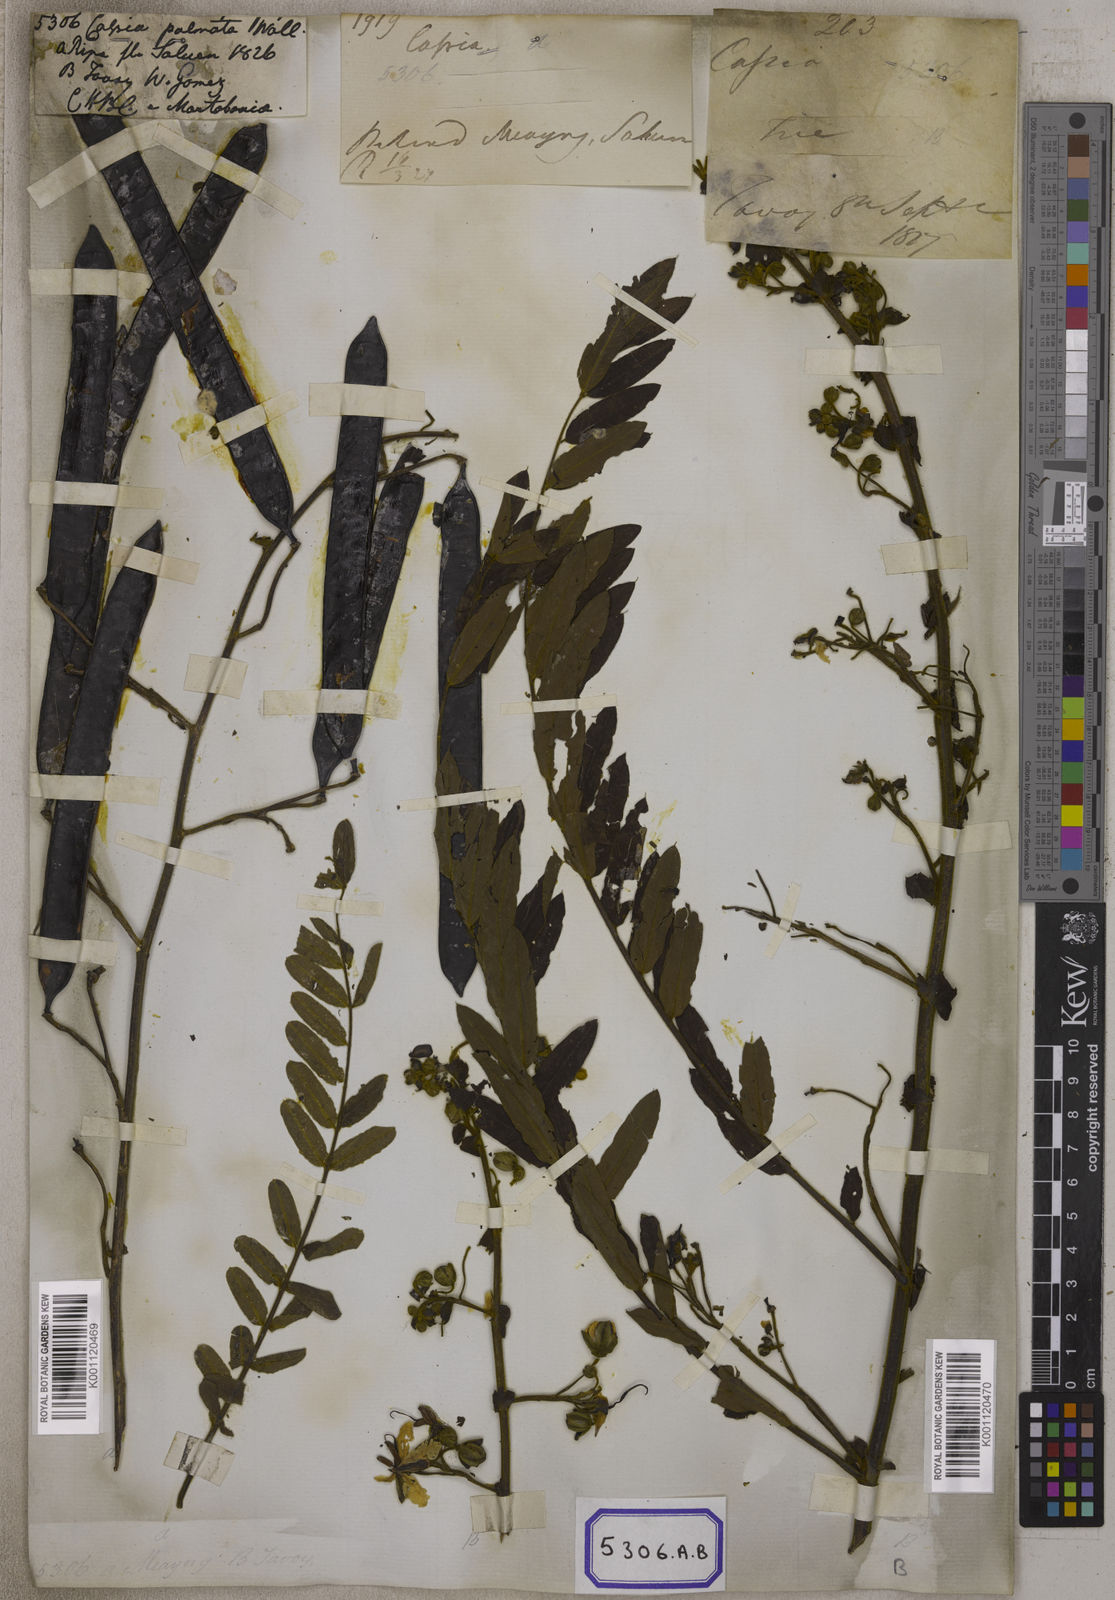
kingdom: Plantae
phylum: Tracheophyta
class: Magnoliopsida
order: Fabales
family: Fabaceae
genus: Senna
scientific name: Senna timoriensis
